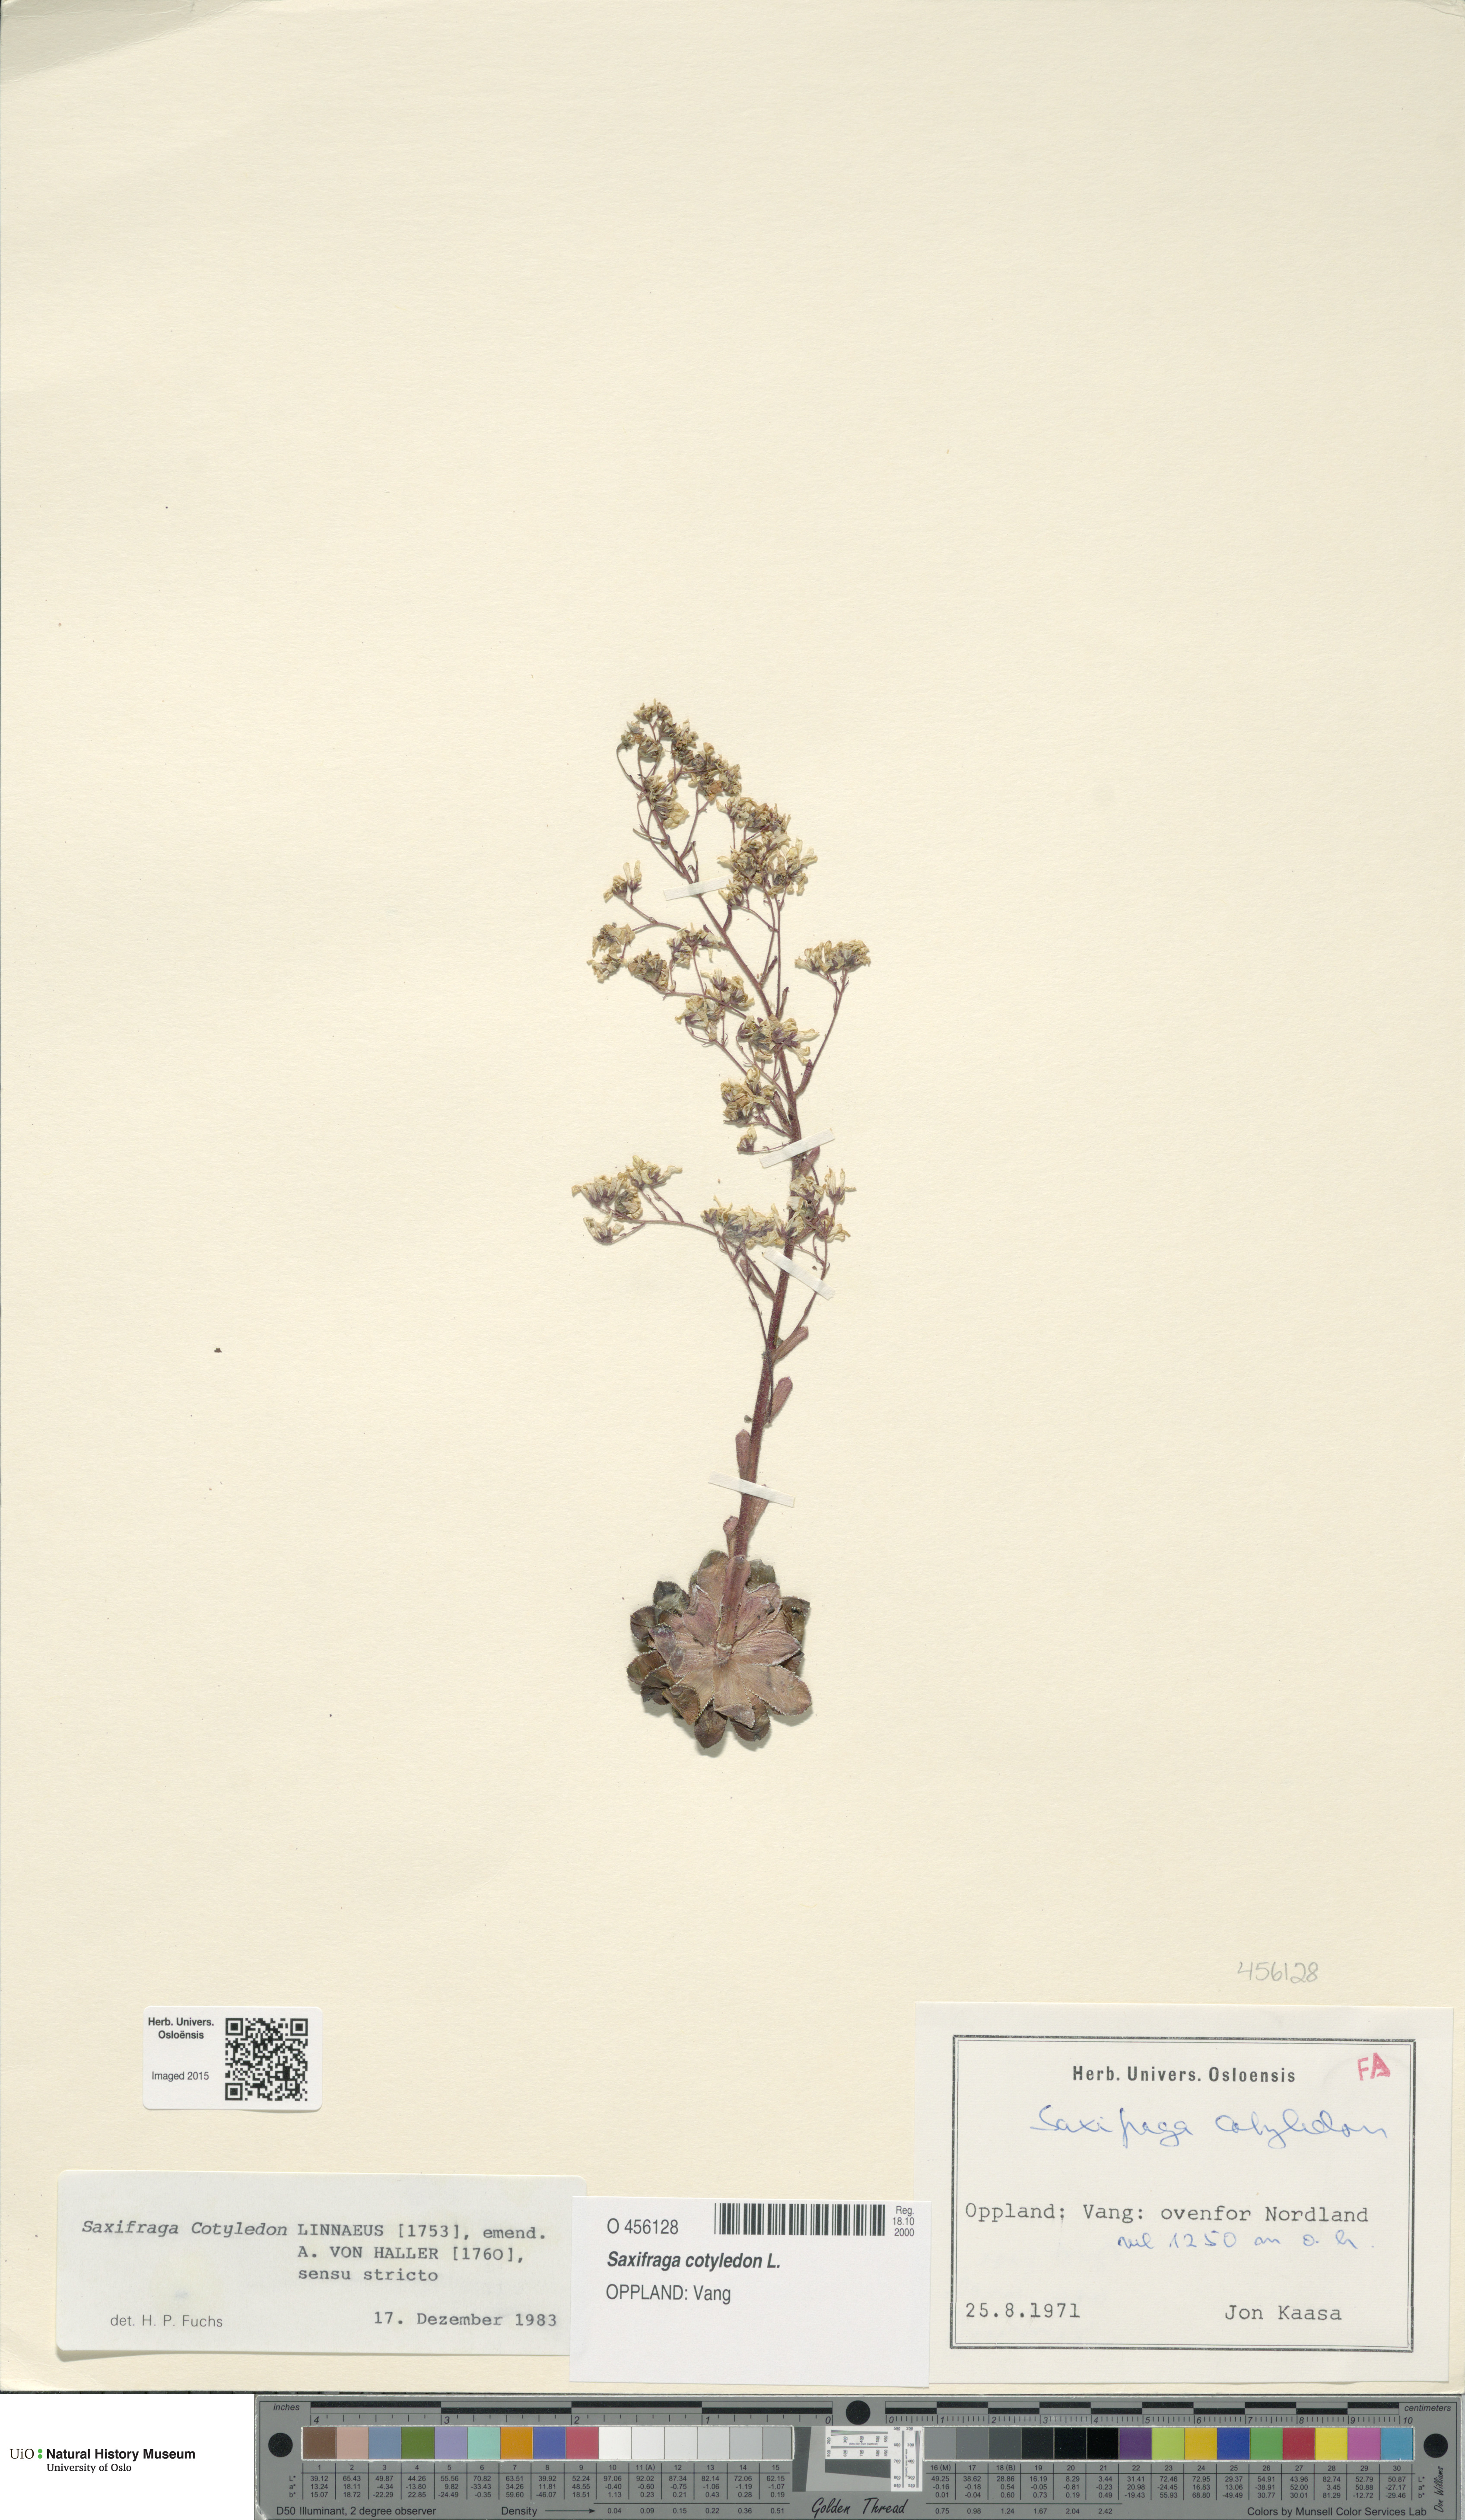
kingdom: Plantae
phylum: Tracheophyta
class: Magnoliopsida
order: Saxifragales
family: Saxifragaceae
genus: Saxifraga
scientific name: Saxifraga cotyledon
